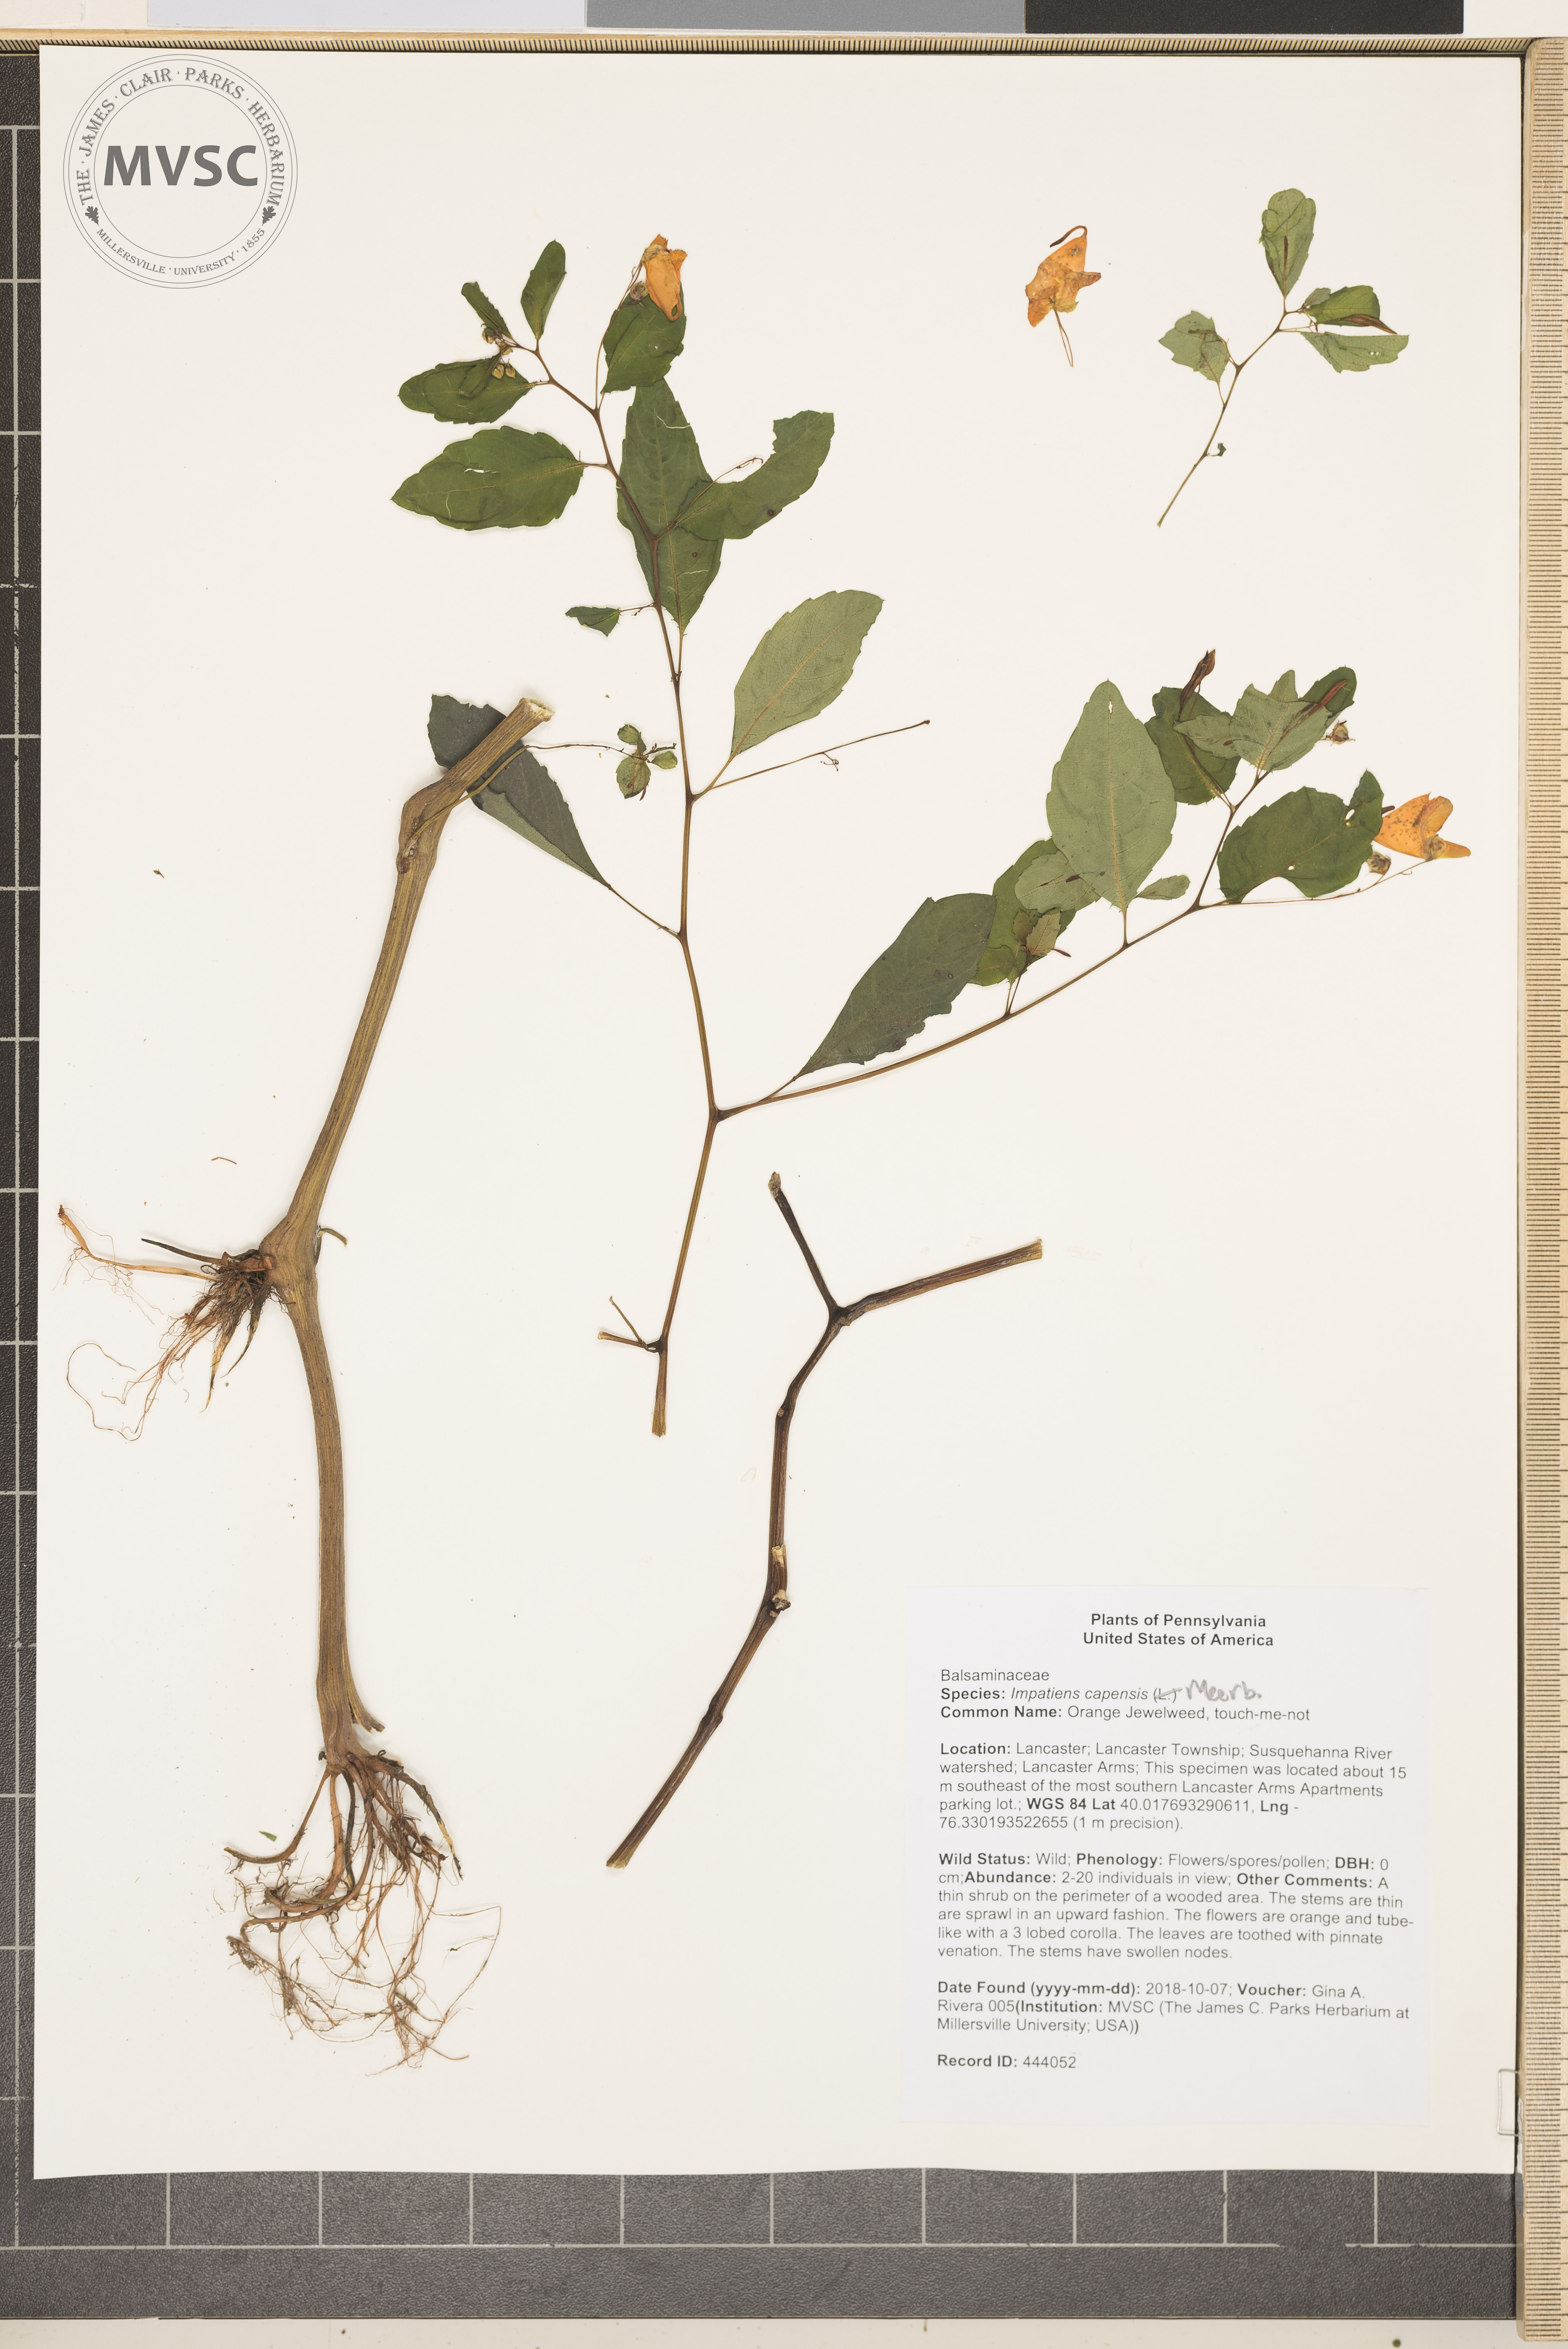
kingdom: Plantae
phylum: Tracheophyta
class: Magnoliopsida
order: Ericales
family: Balsaminaceae
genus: Impatiens
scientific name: Impatiens capensis
